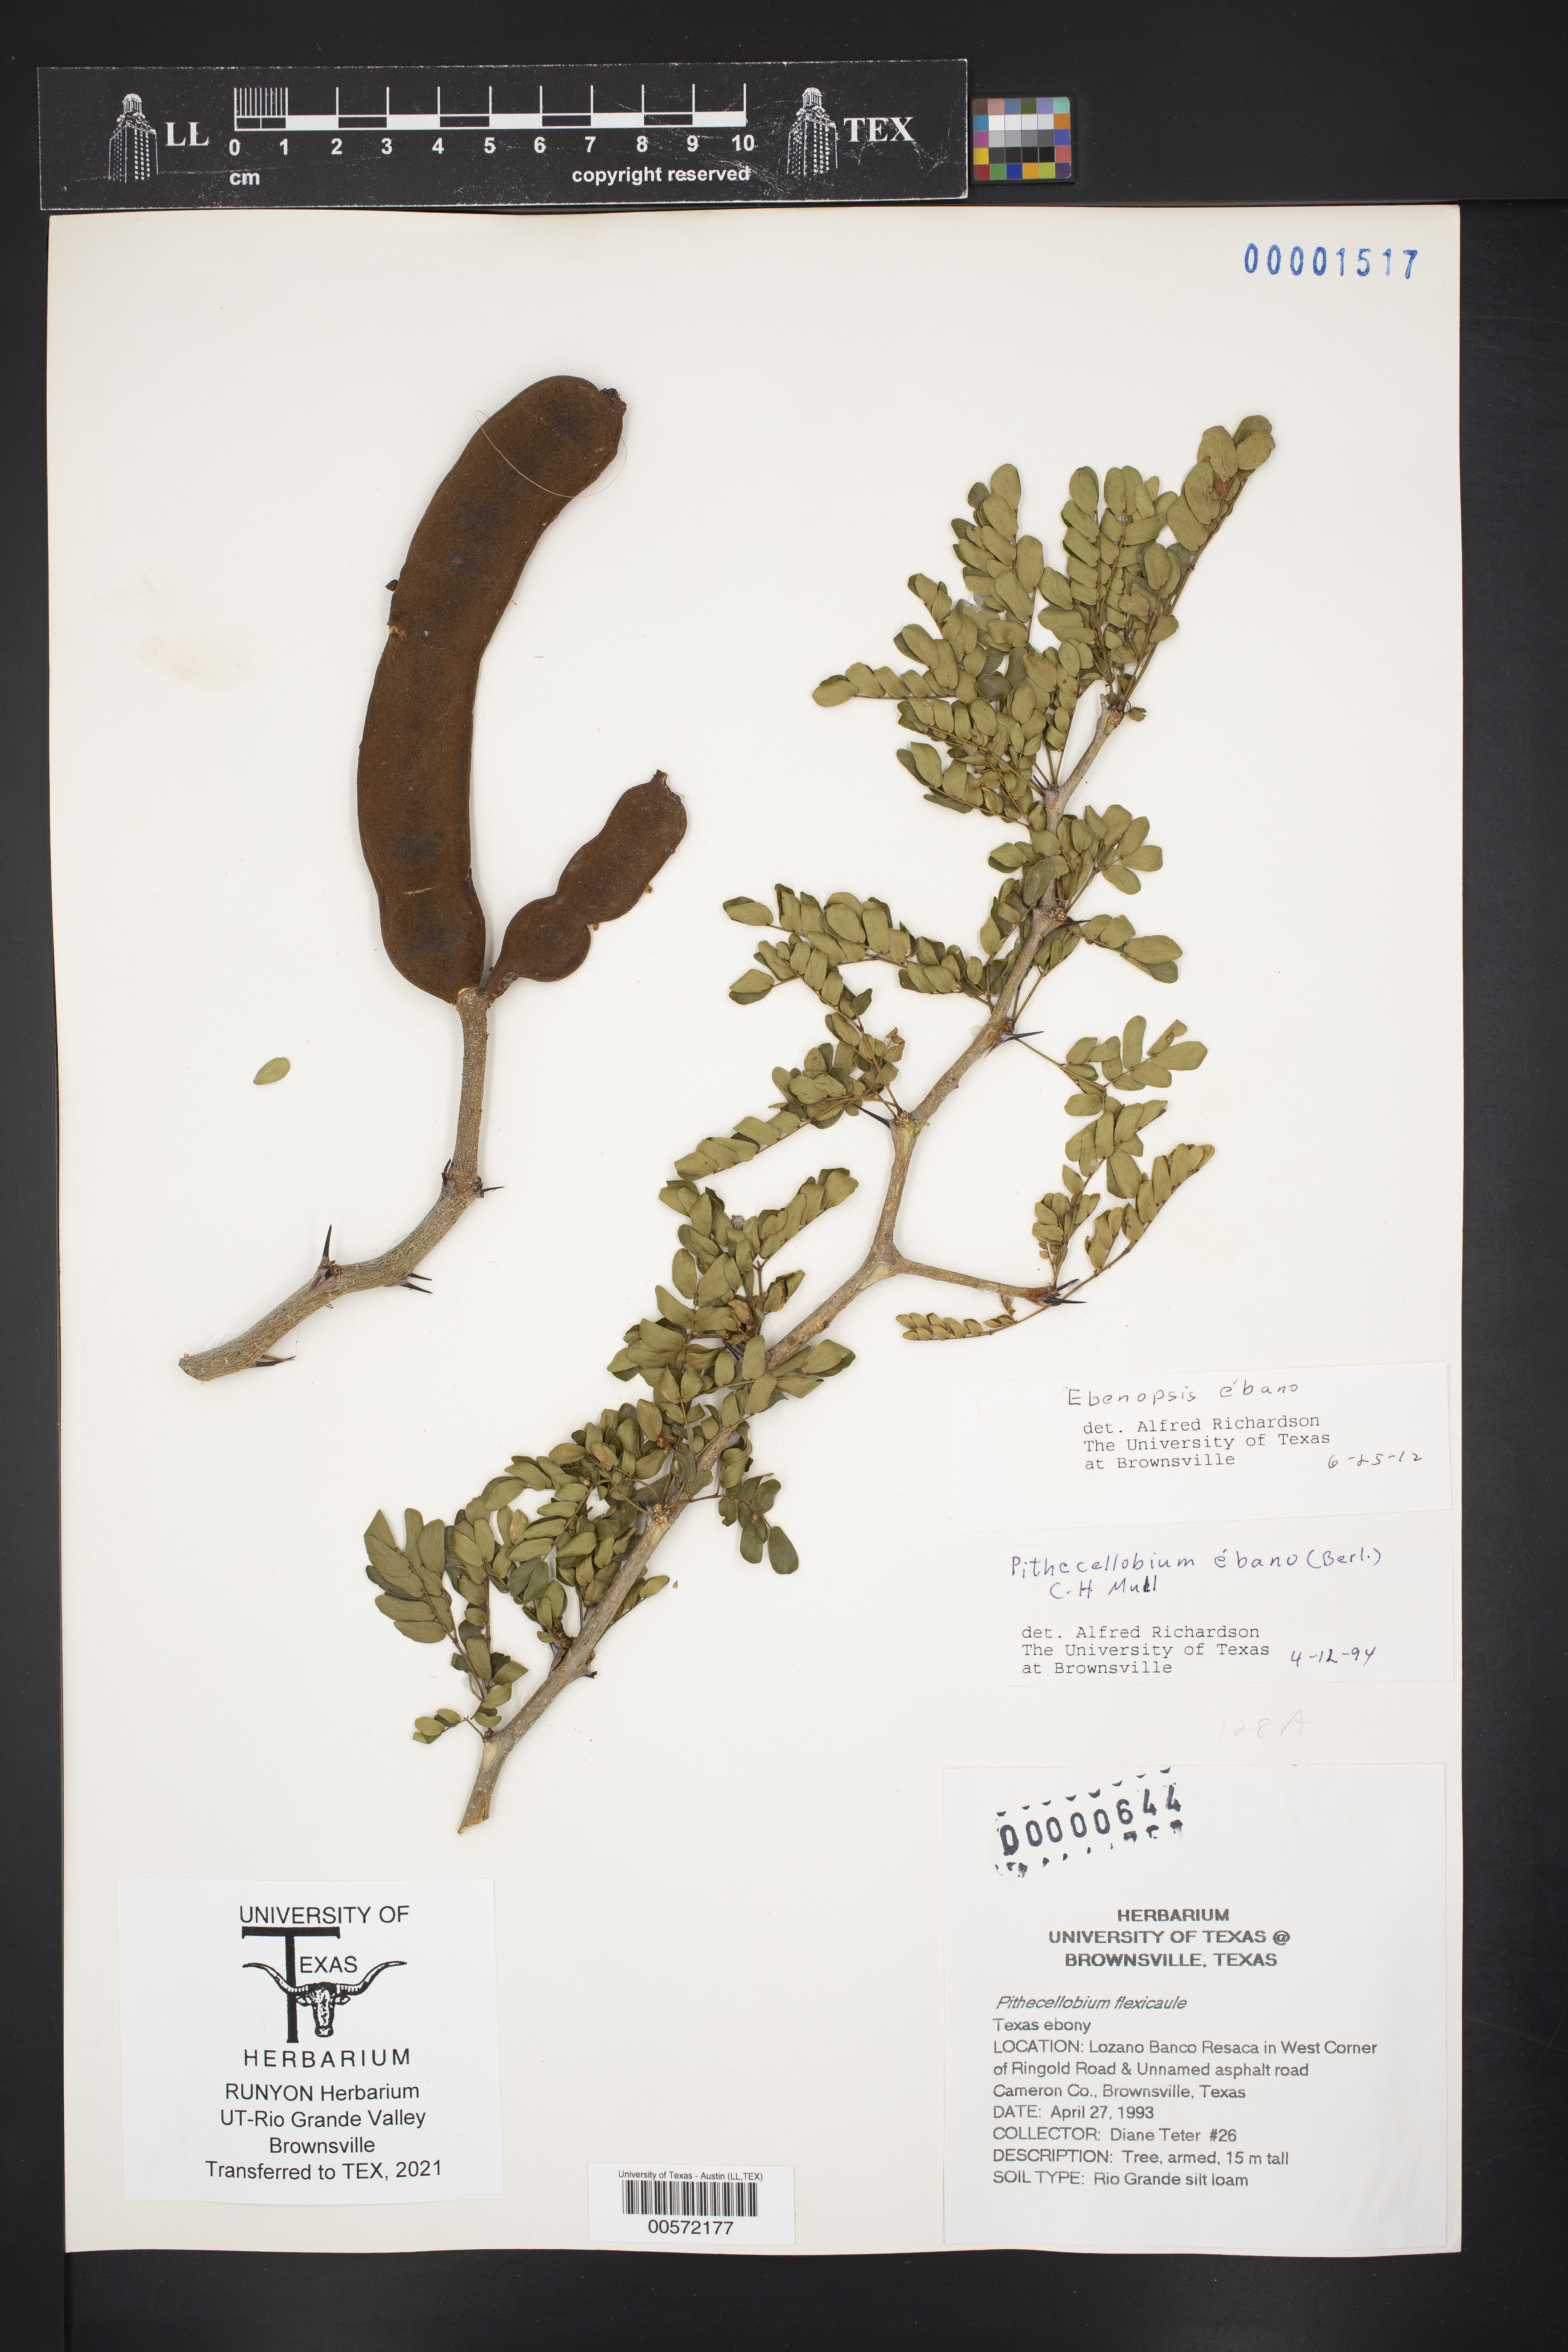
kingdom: Plantae
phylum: Tracheophyta
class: Magnoliopsida
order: Fabales
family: Fabaceae
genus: Ebenopsis
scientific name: Ebenopsis ebano
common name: Ebony blackbead
